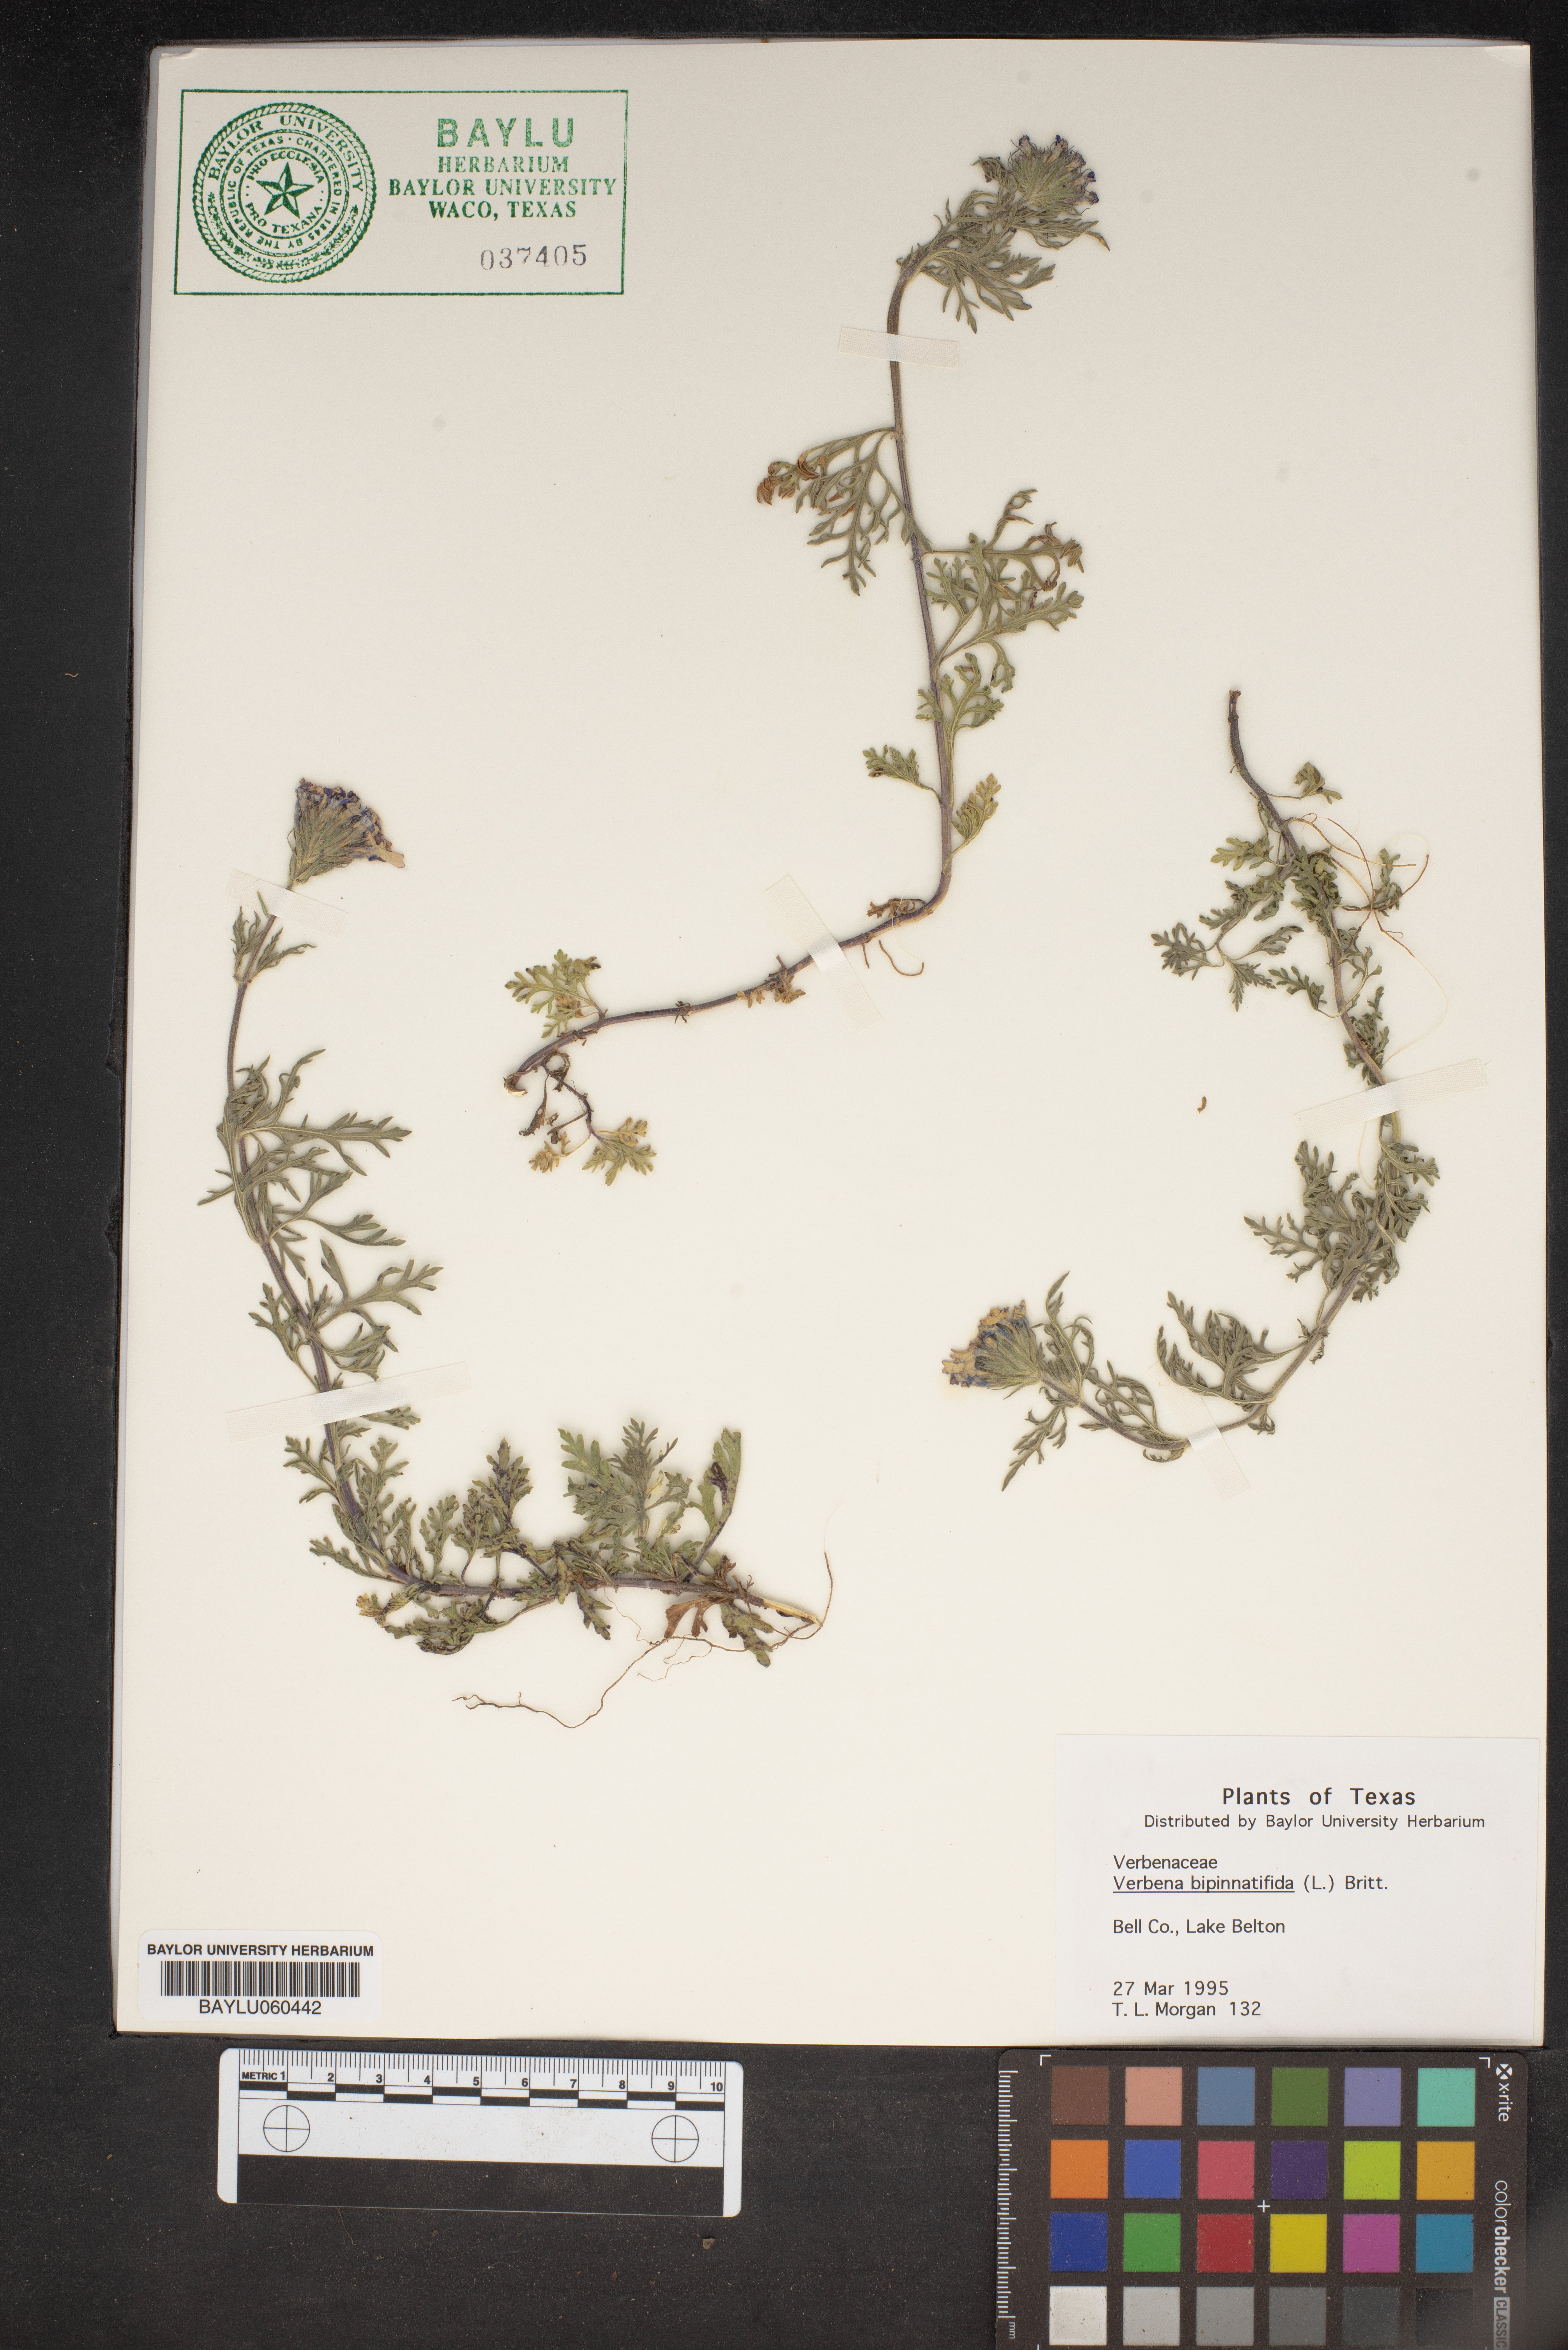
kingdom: Plantae
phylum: Tracheophyta
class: Magnoliopsida
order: Lamiales
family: Verbenaceae
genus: Verbena
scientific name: Verbena bipinnatifida
